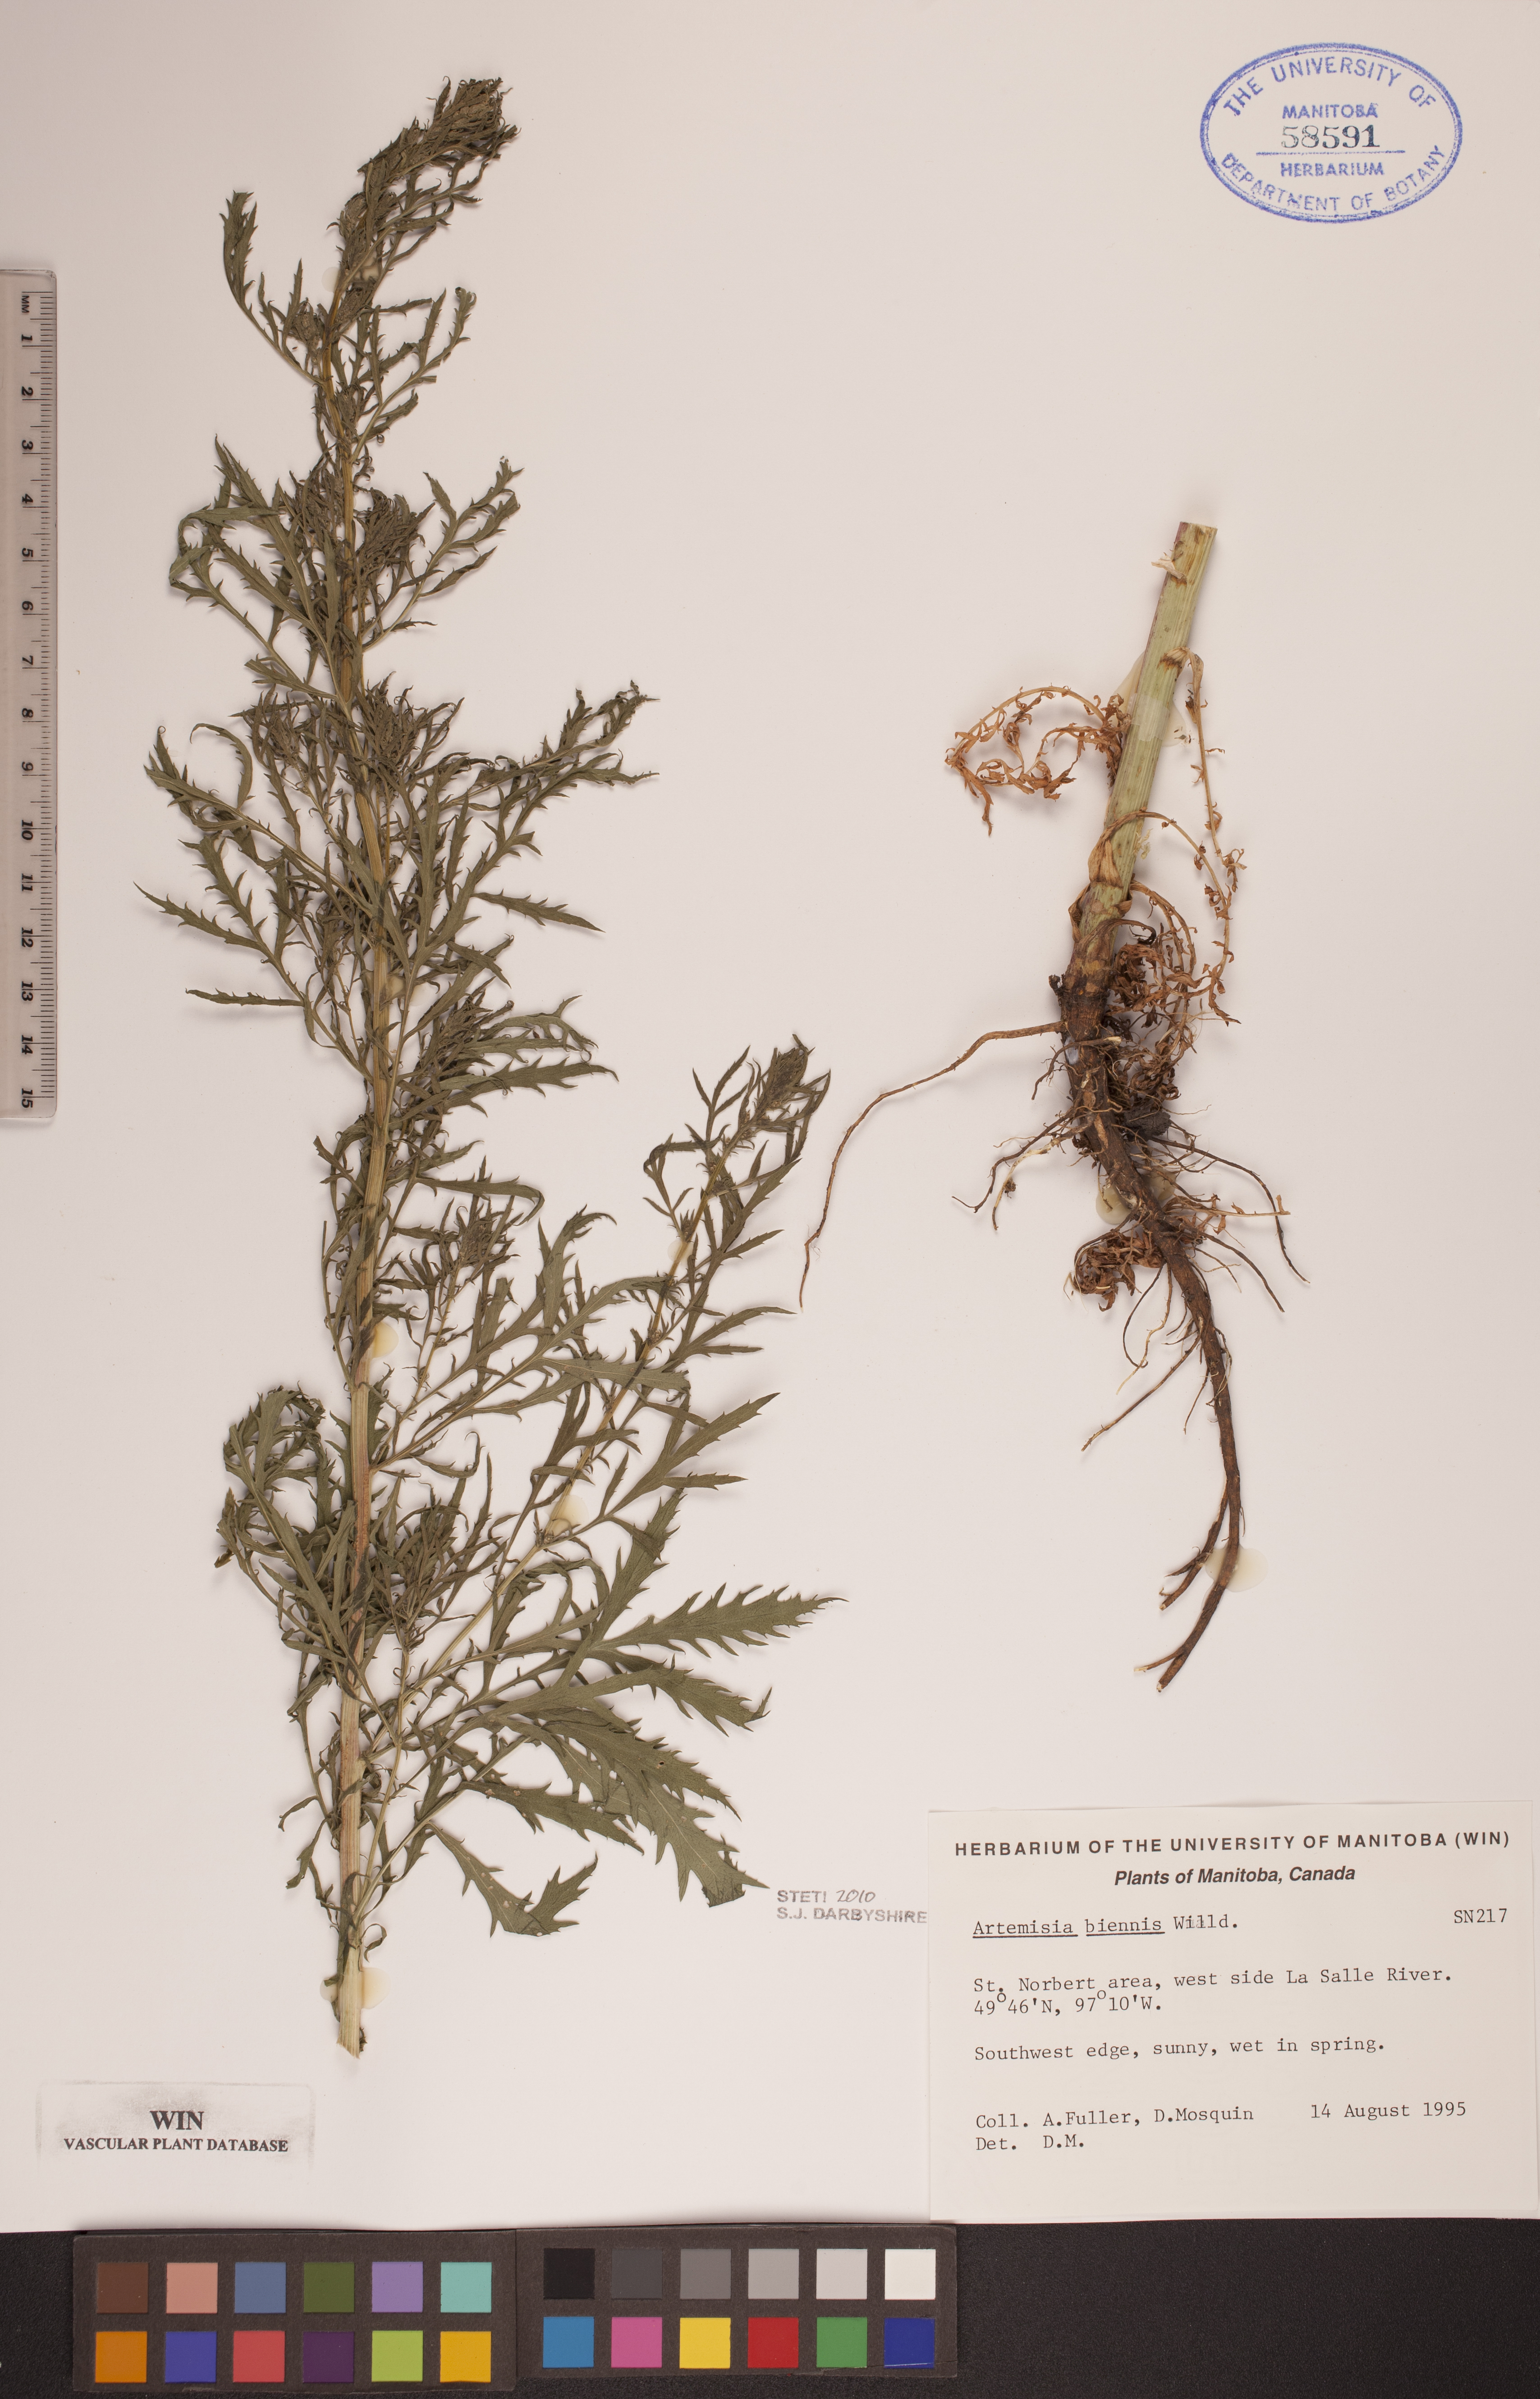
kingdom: Plantae
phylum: Tracheophyta
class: Magnoliopsida
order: Asterales
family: Asteraceae
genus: Artemisia
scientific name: Artemisia biennis
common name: Biennial wormwood
